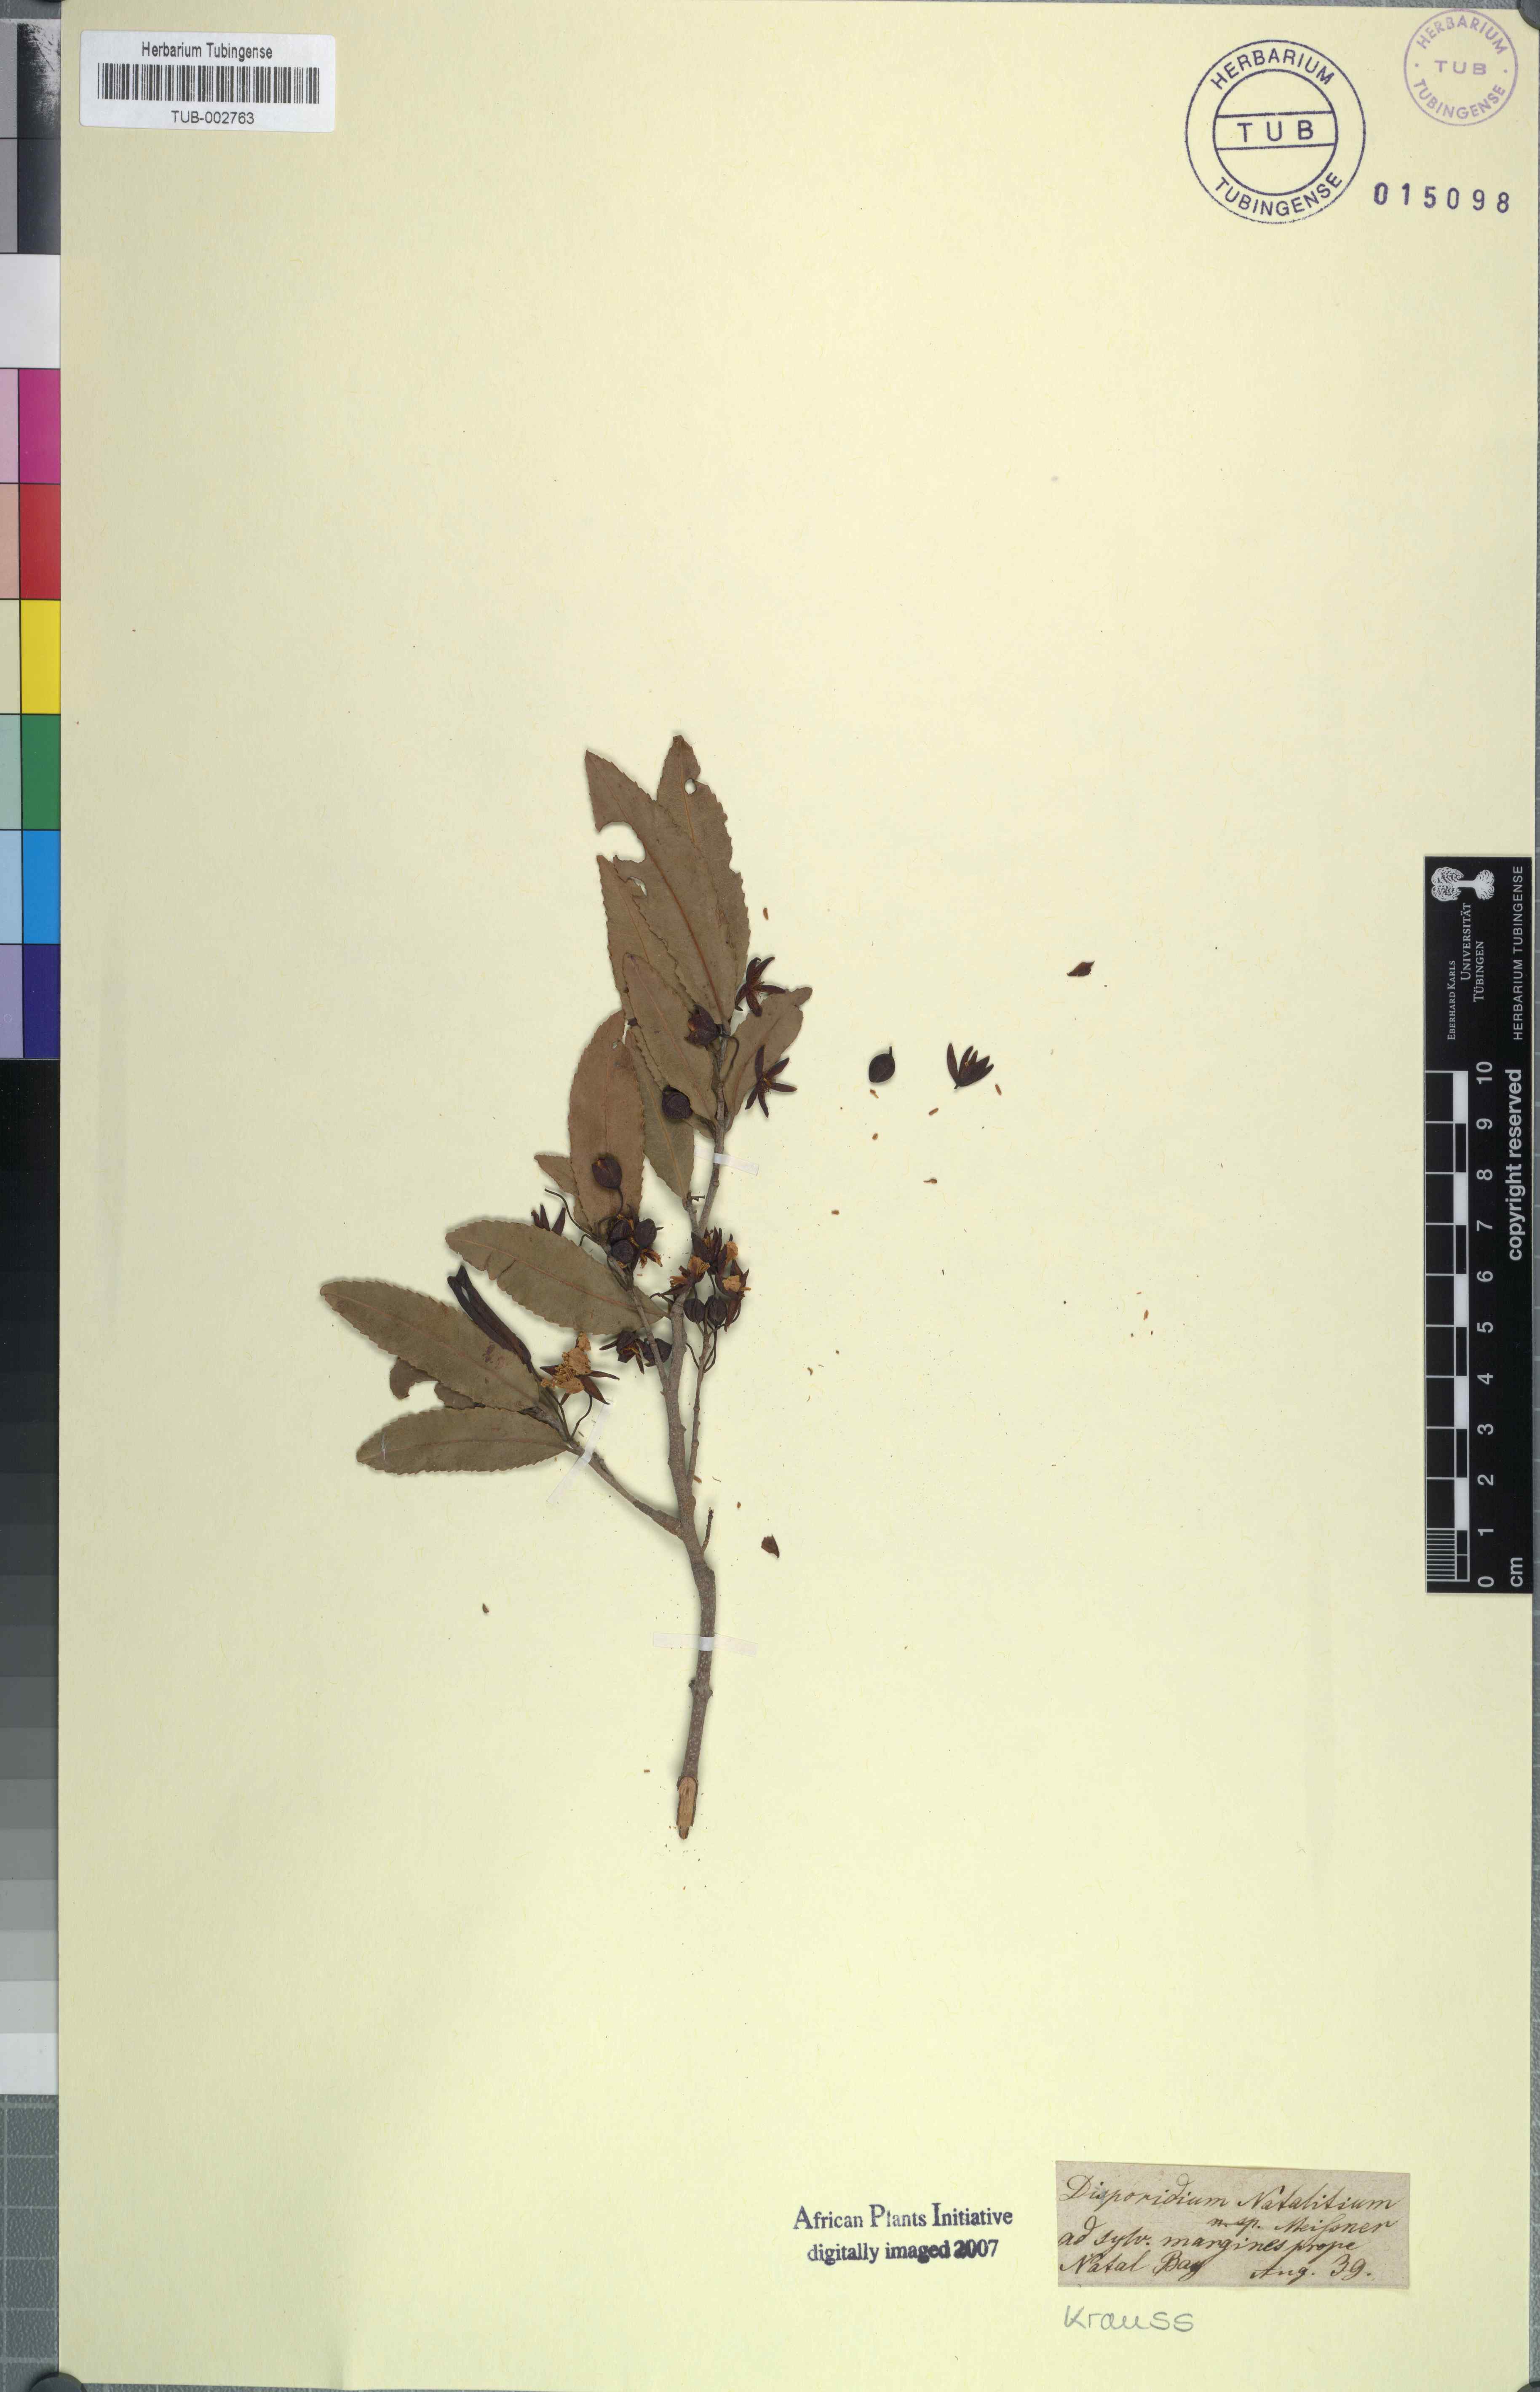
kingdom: Plantae
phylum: Tracheophyta
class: Magnoliopsida
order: Malpighiales
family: Ochnaceae
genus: Ochna
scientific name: Ochna atropurpurea
